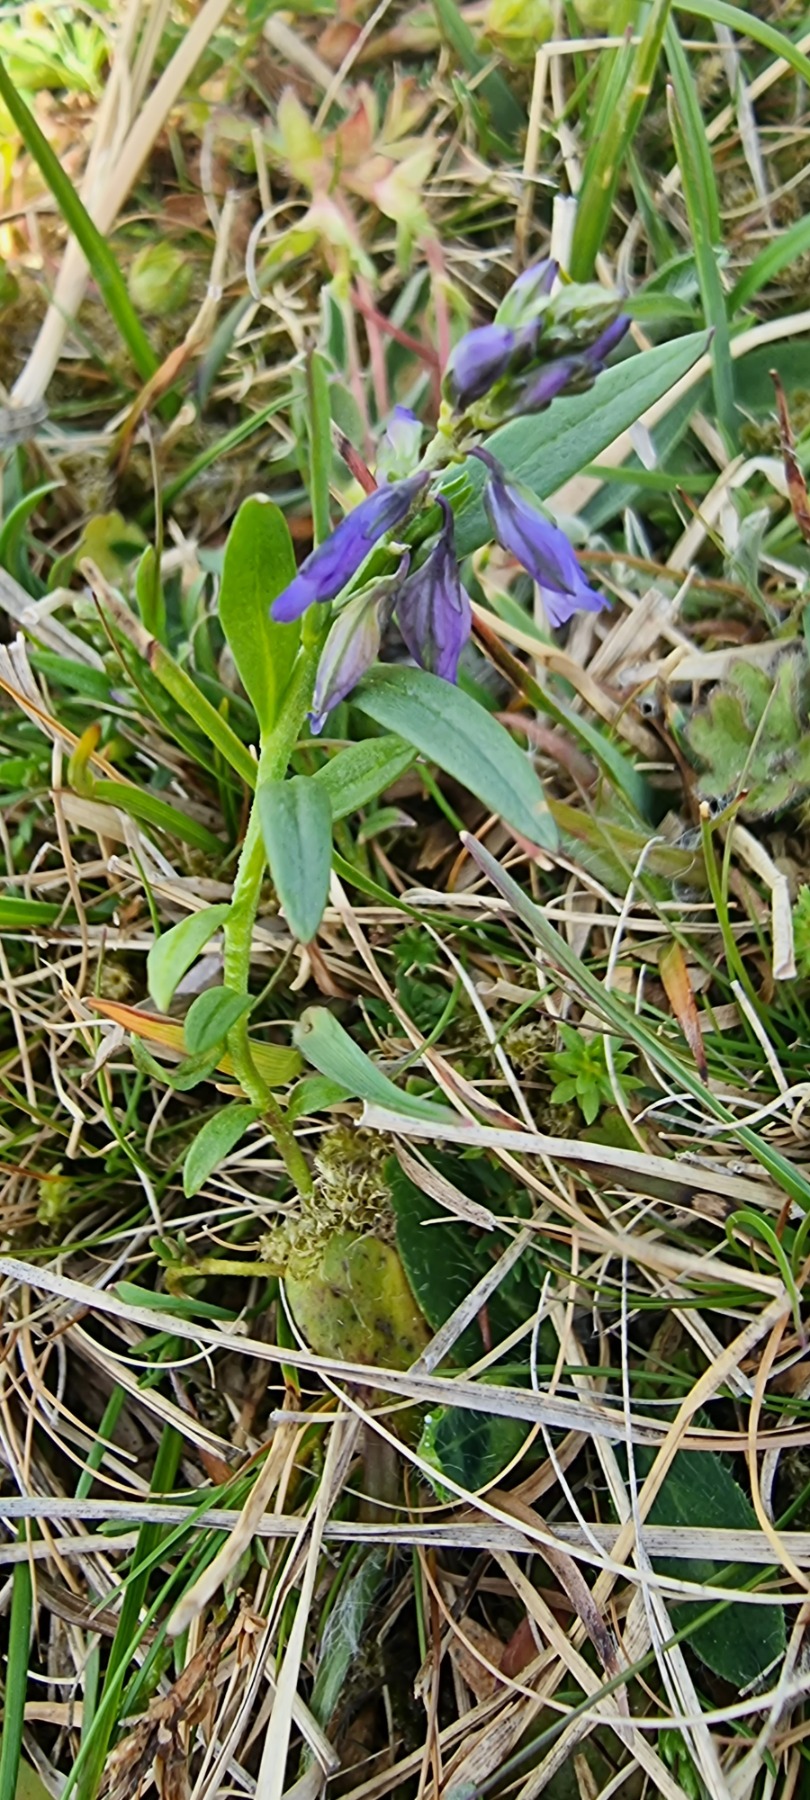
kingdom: Plantae
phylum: Tracheophyta
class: Magnoliopsida
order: Fabales
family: Polygalaceae
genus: Polygala
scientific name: Polygala vulgaris
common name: Almindelig mælkeurt
